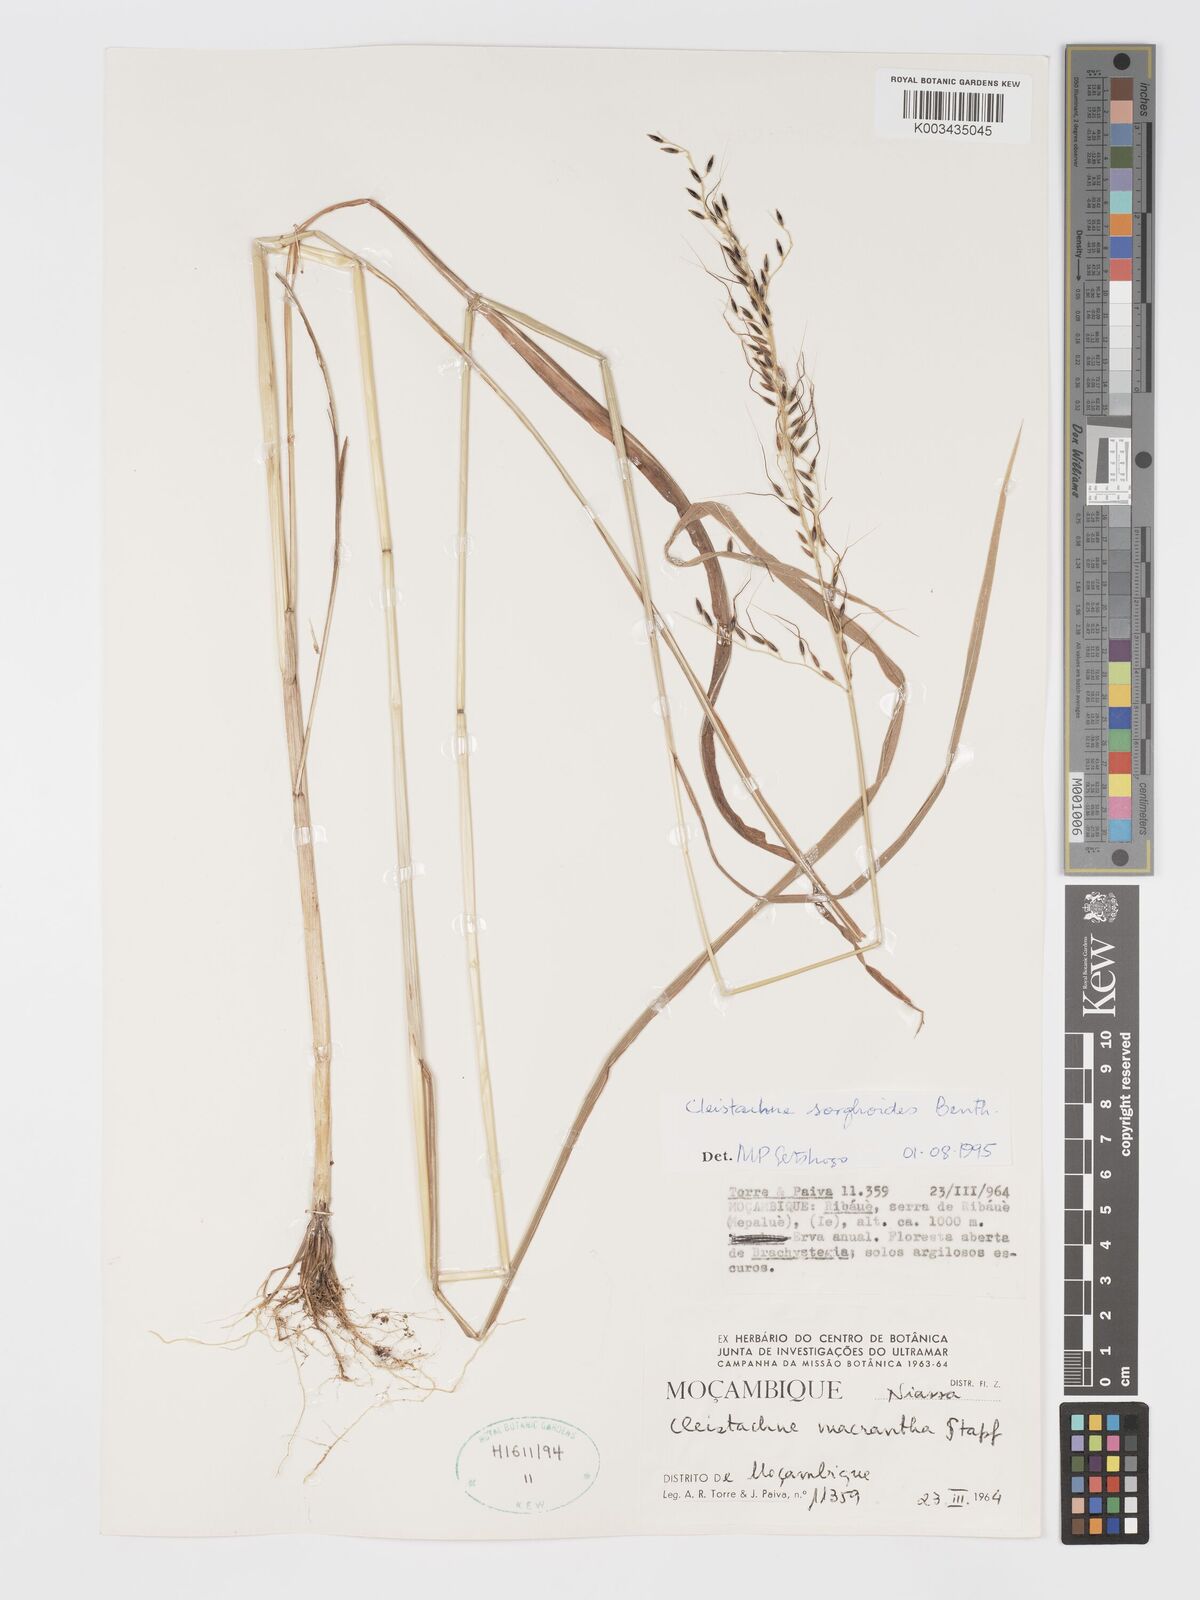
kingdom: Plantae
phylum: Tracheophyta
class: Liliopsida
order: Poales
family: Poaceae
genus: Cleistachne
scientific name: Cleistachne sorghoides
